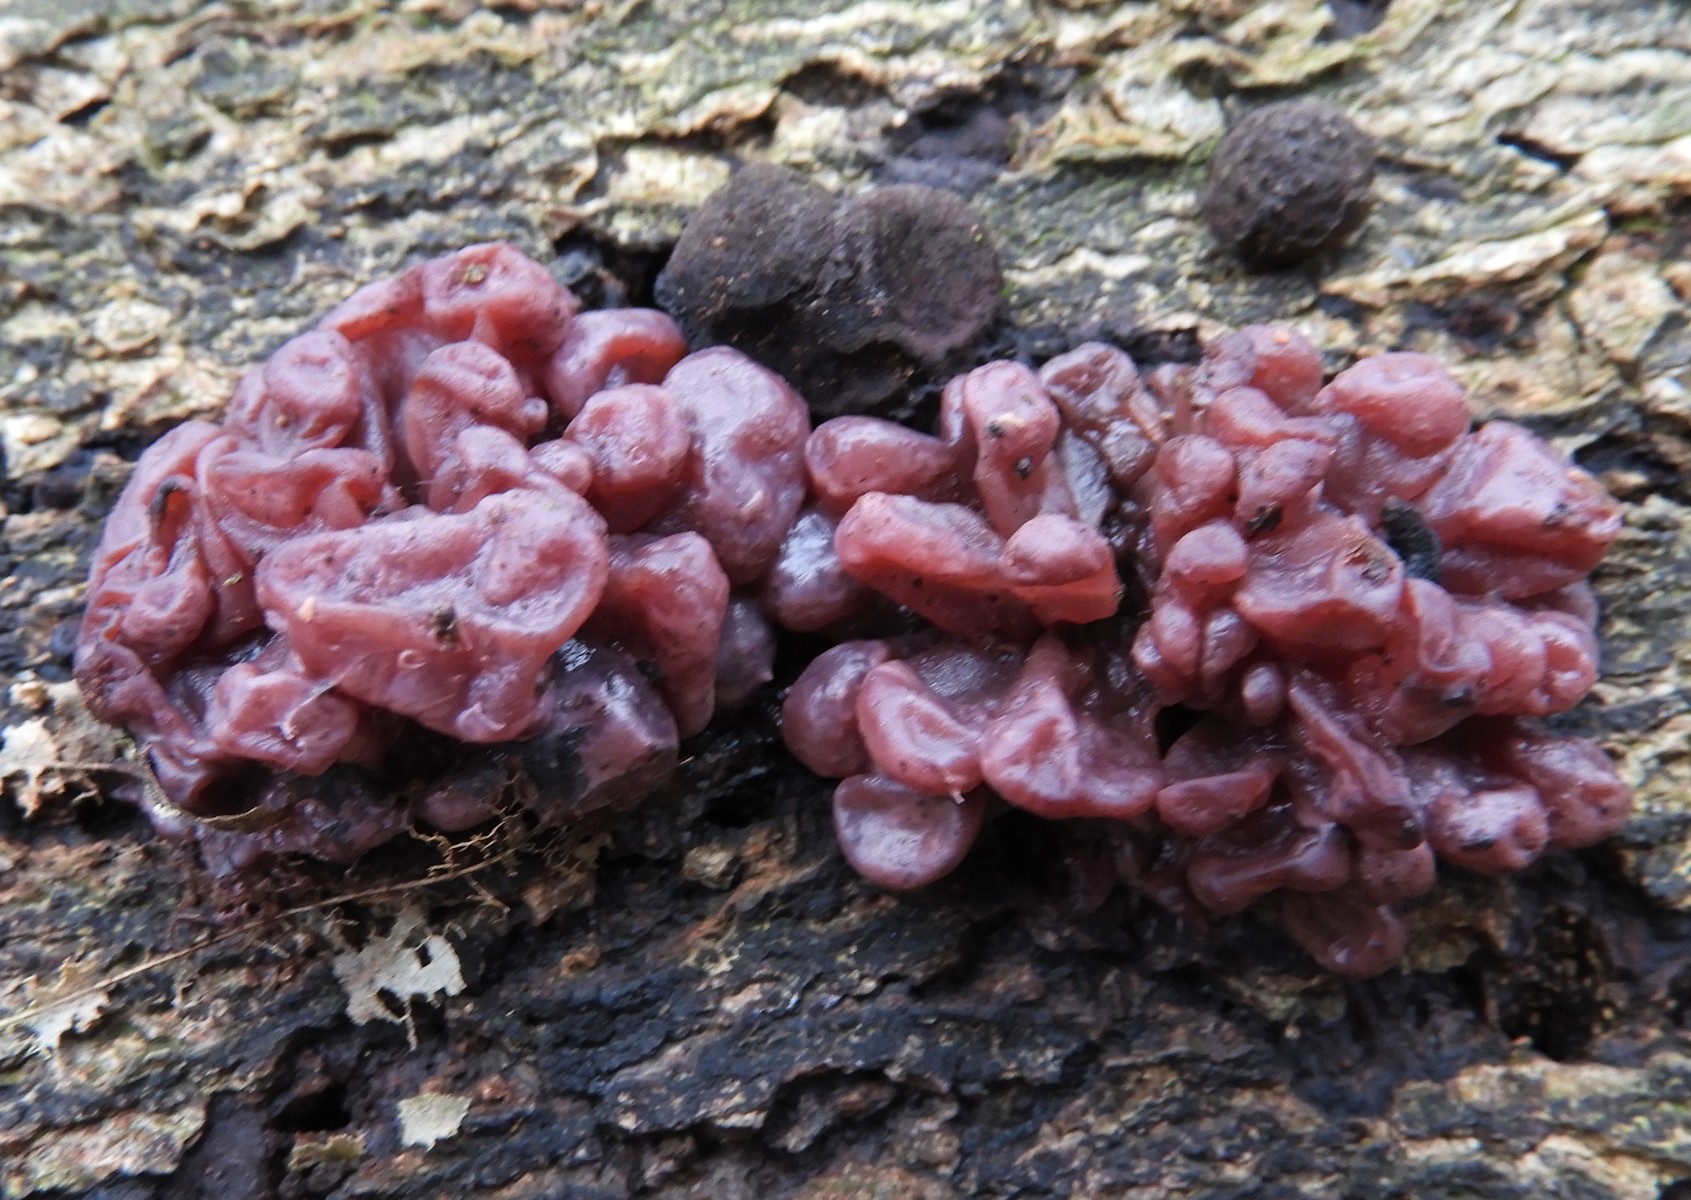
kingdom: Fungi
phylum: Ascomycota
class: Leotiomycetes
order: Helotiales
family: Gelatinodiscaceae
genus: Ascocoryne
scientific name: Ascocoryne sarcoides
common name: rødlilla sejskive
